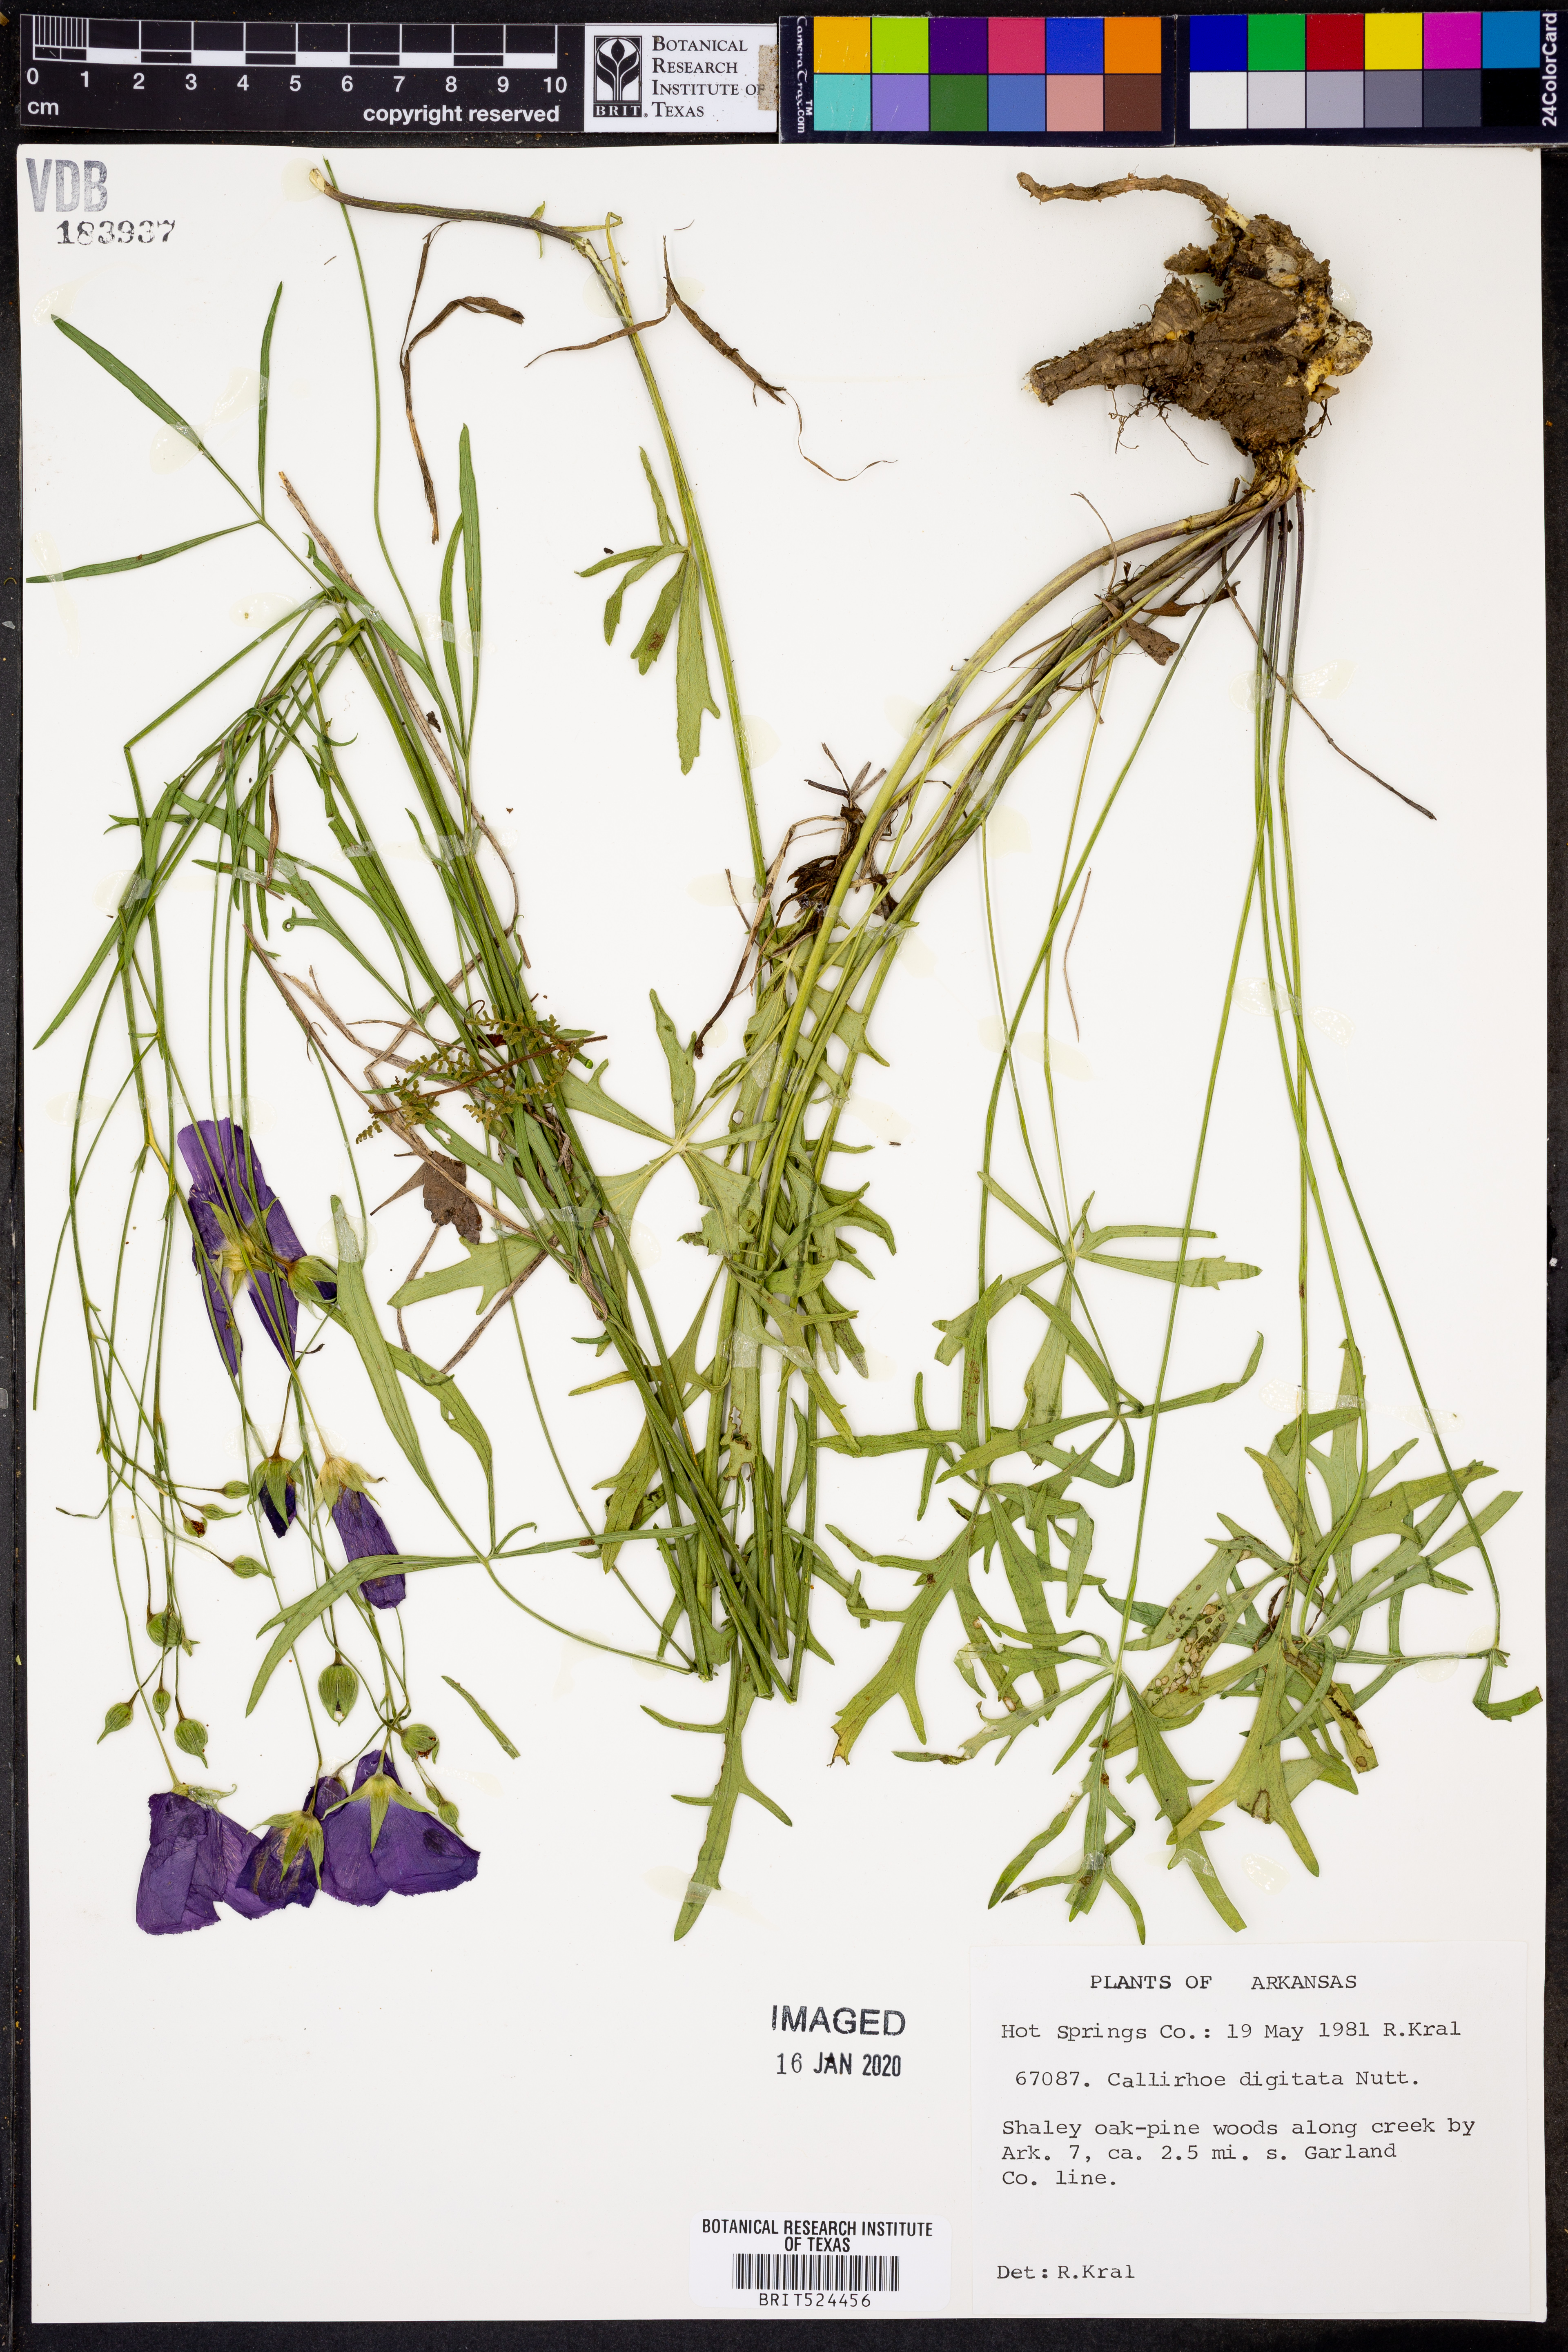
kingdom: Plantae
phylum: Tracheophyta
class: Magnoliopsida
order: Malvales
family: Malvaceae
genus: Callirhoe
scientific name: Callirhoe digitata
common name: Finger poppy-mallow
